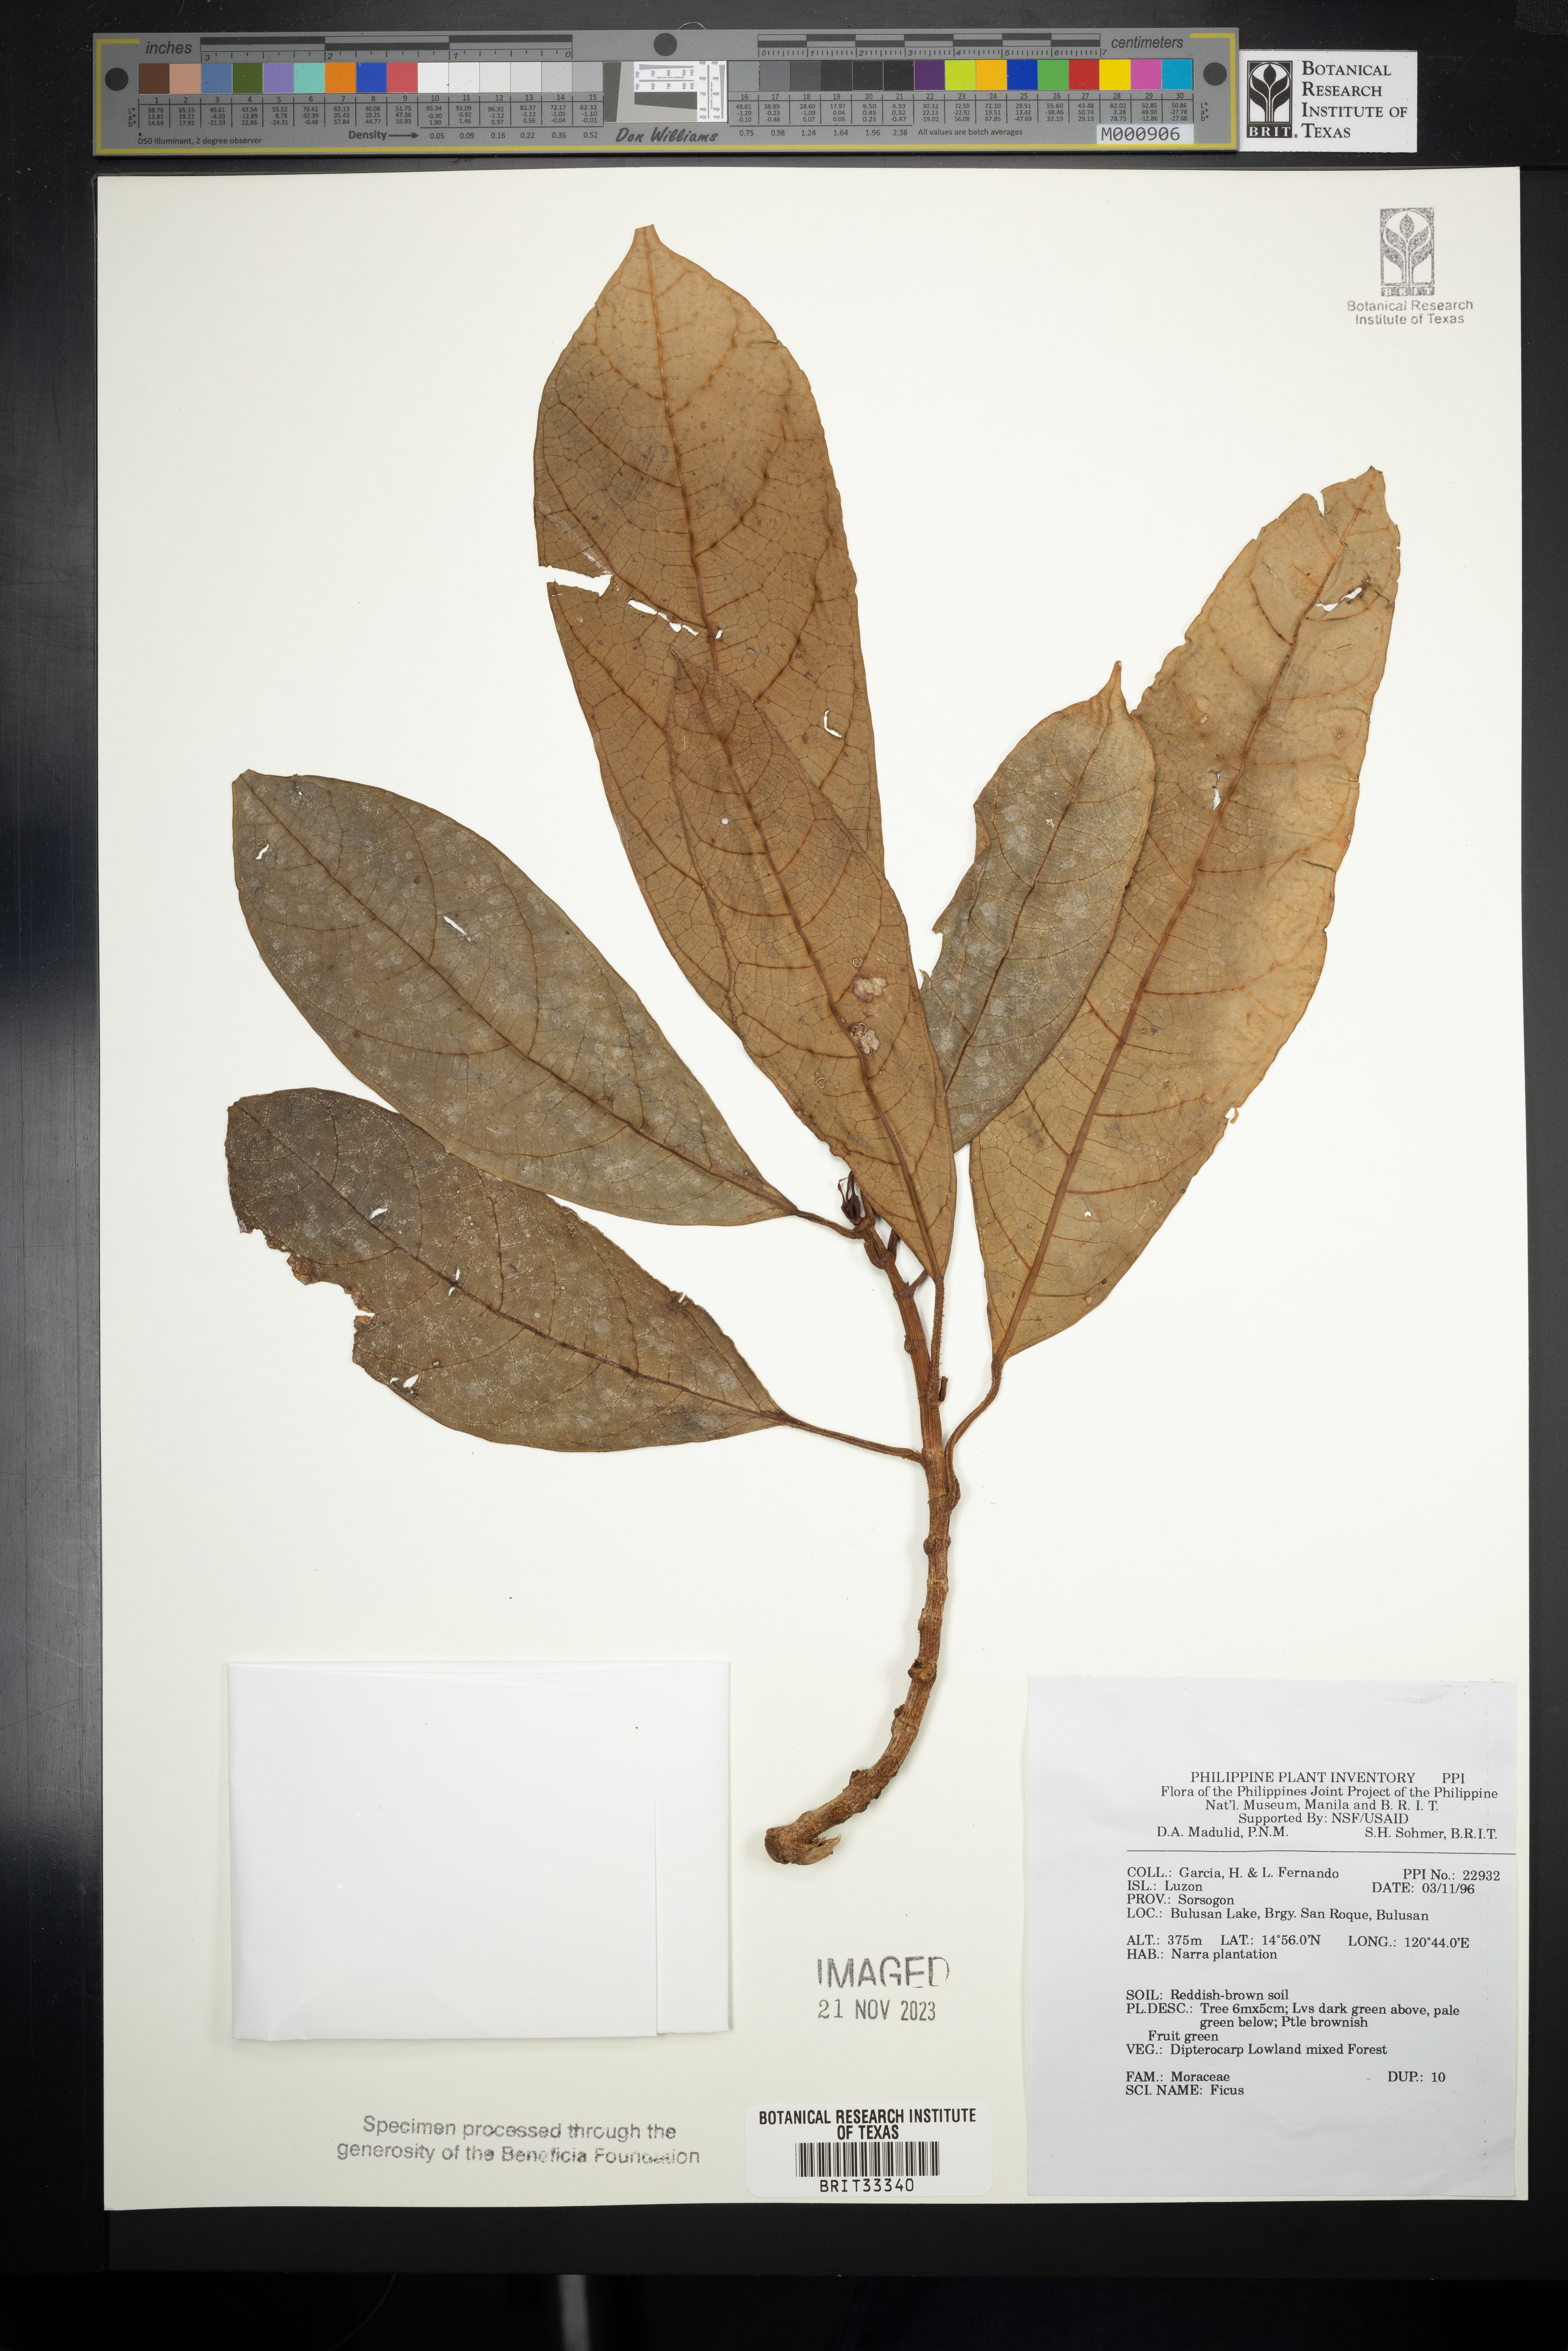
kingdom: Plantae
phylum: Tracheophyta
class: Magnoliopsida
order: Rosales
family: Moraceae
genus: Ficus
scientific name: Ficus
